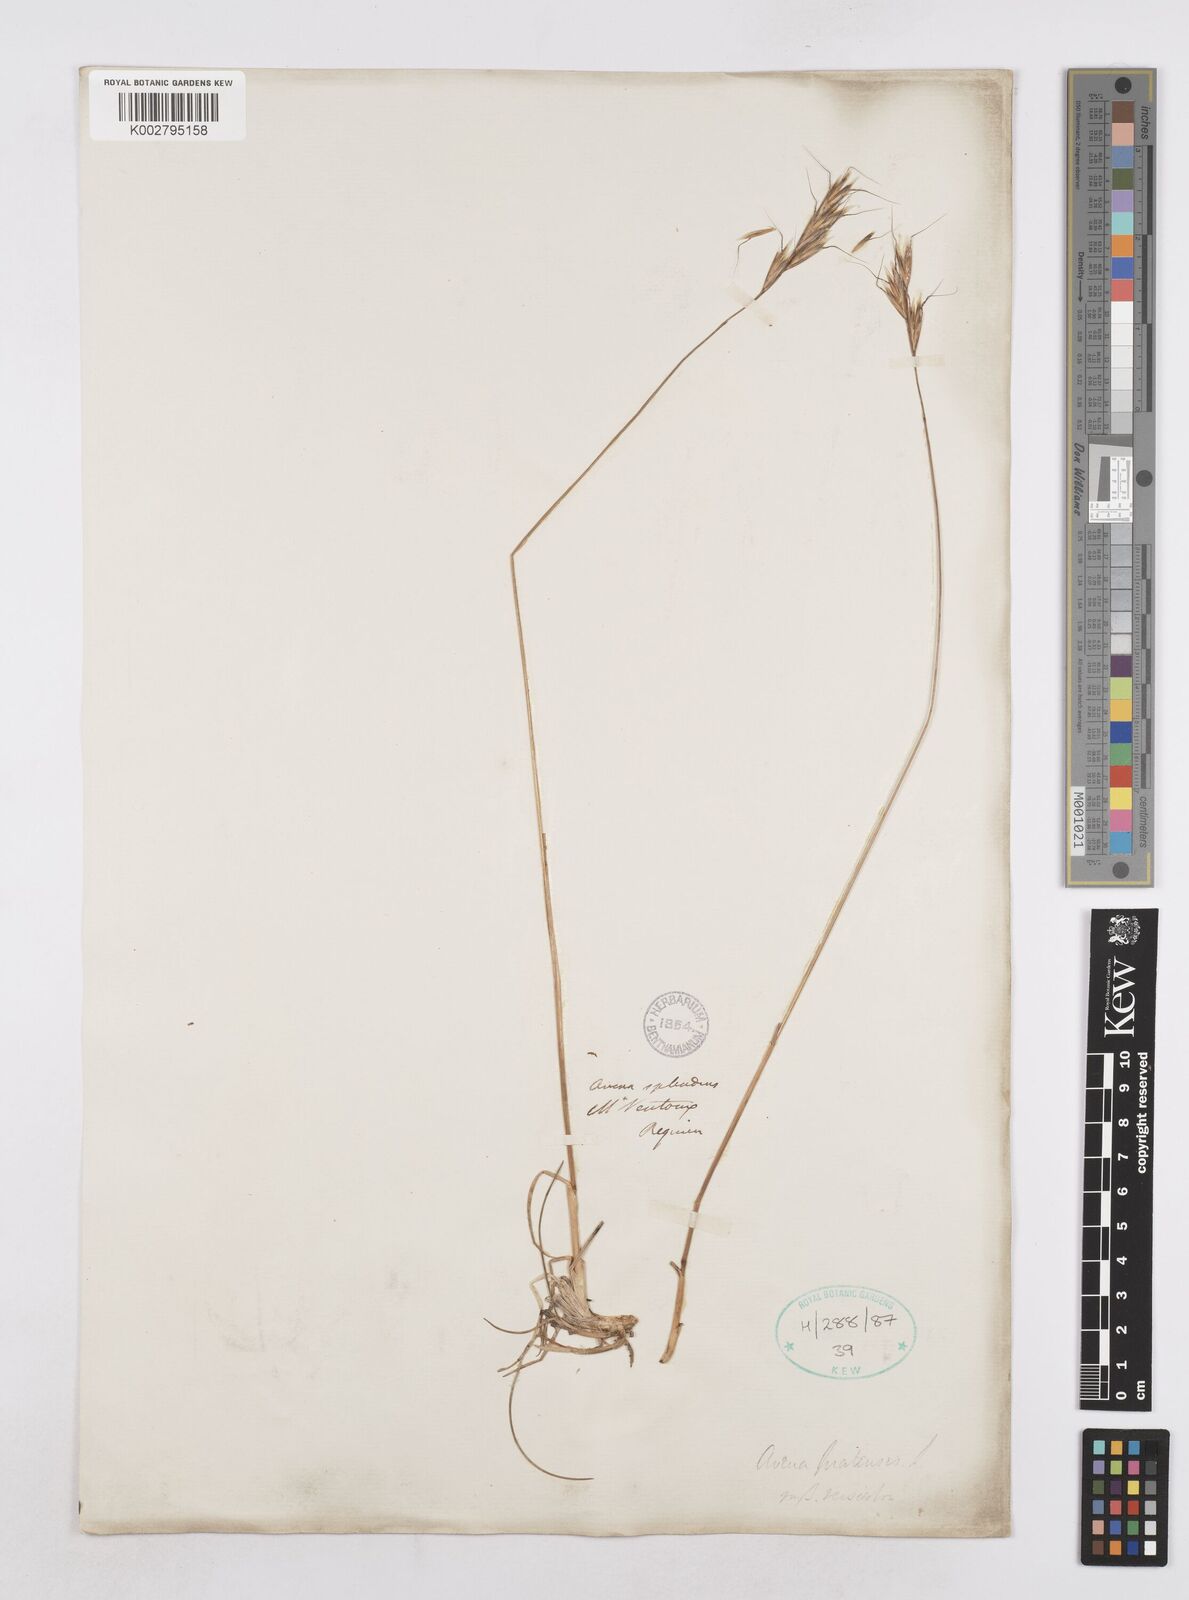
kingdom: Plantae
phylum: Tracheophyta
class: Liliopsida
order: Poales
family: Poaceae
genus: Helictochloa
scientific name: Helictochloa pratensis
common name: Meadow oat grass
